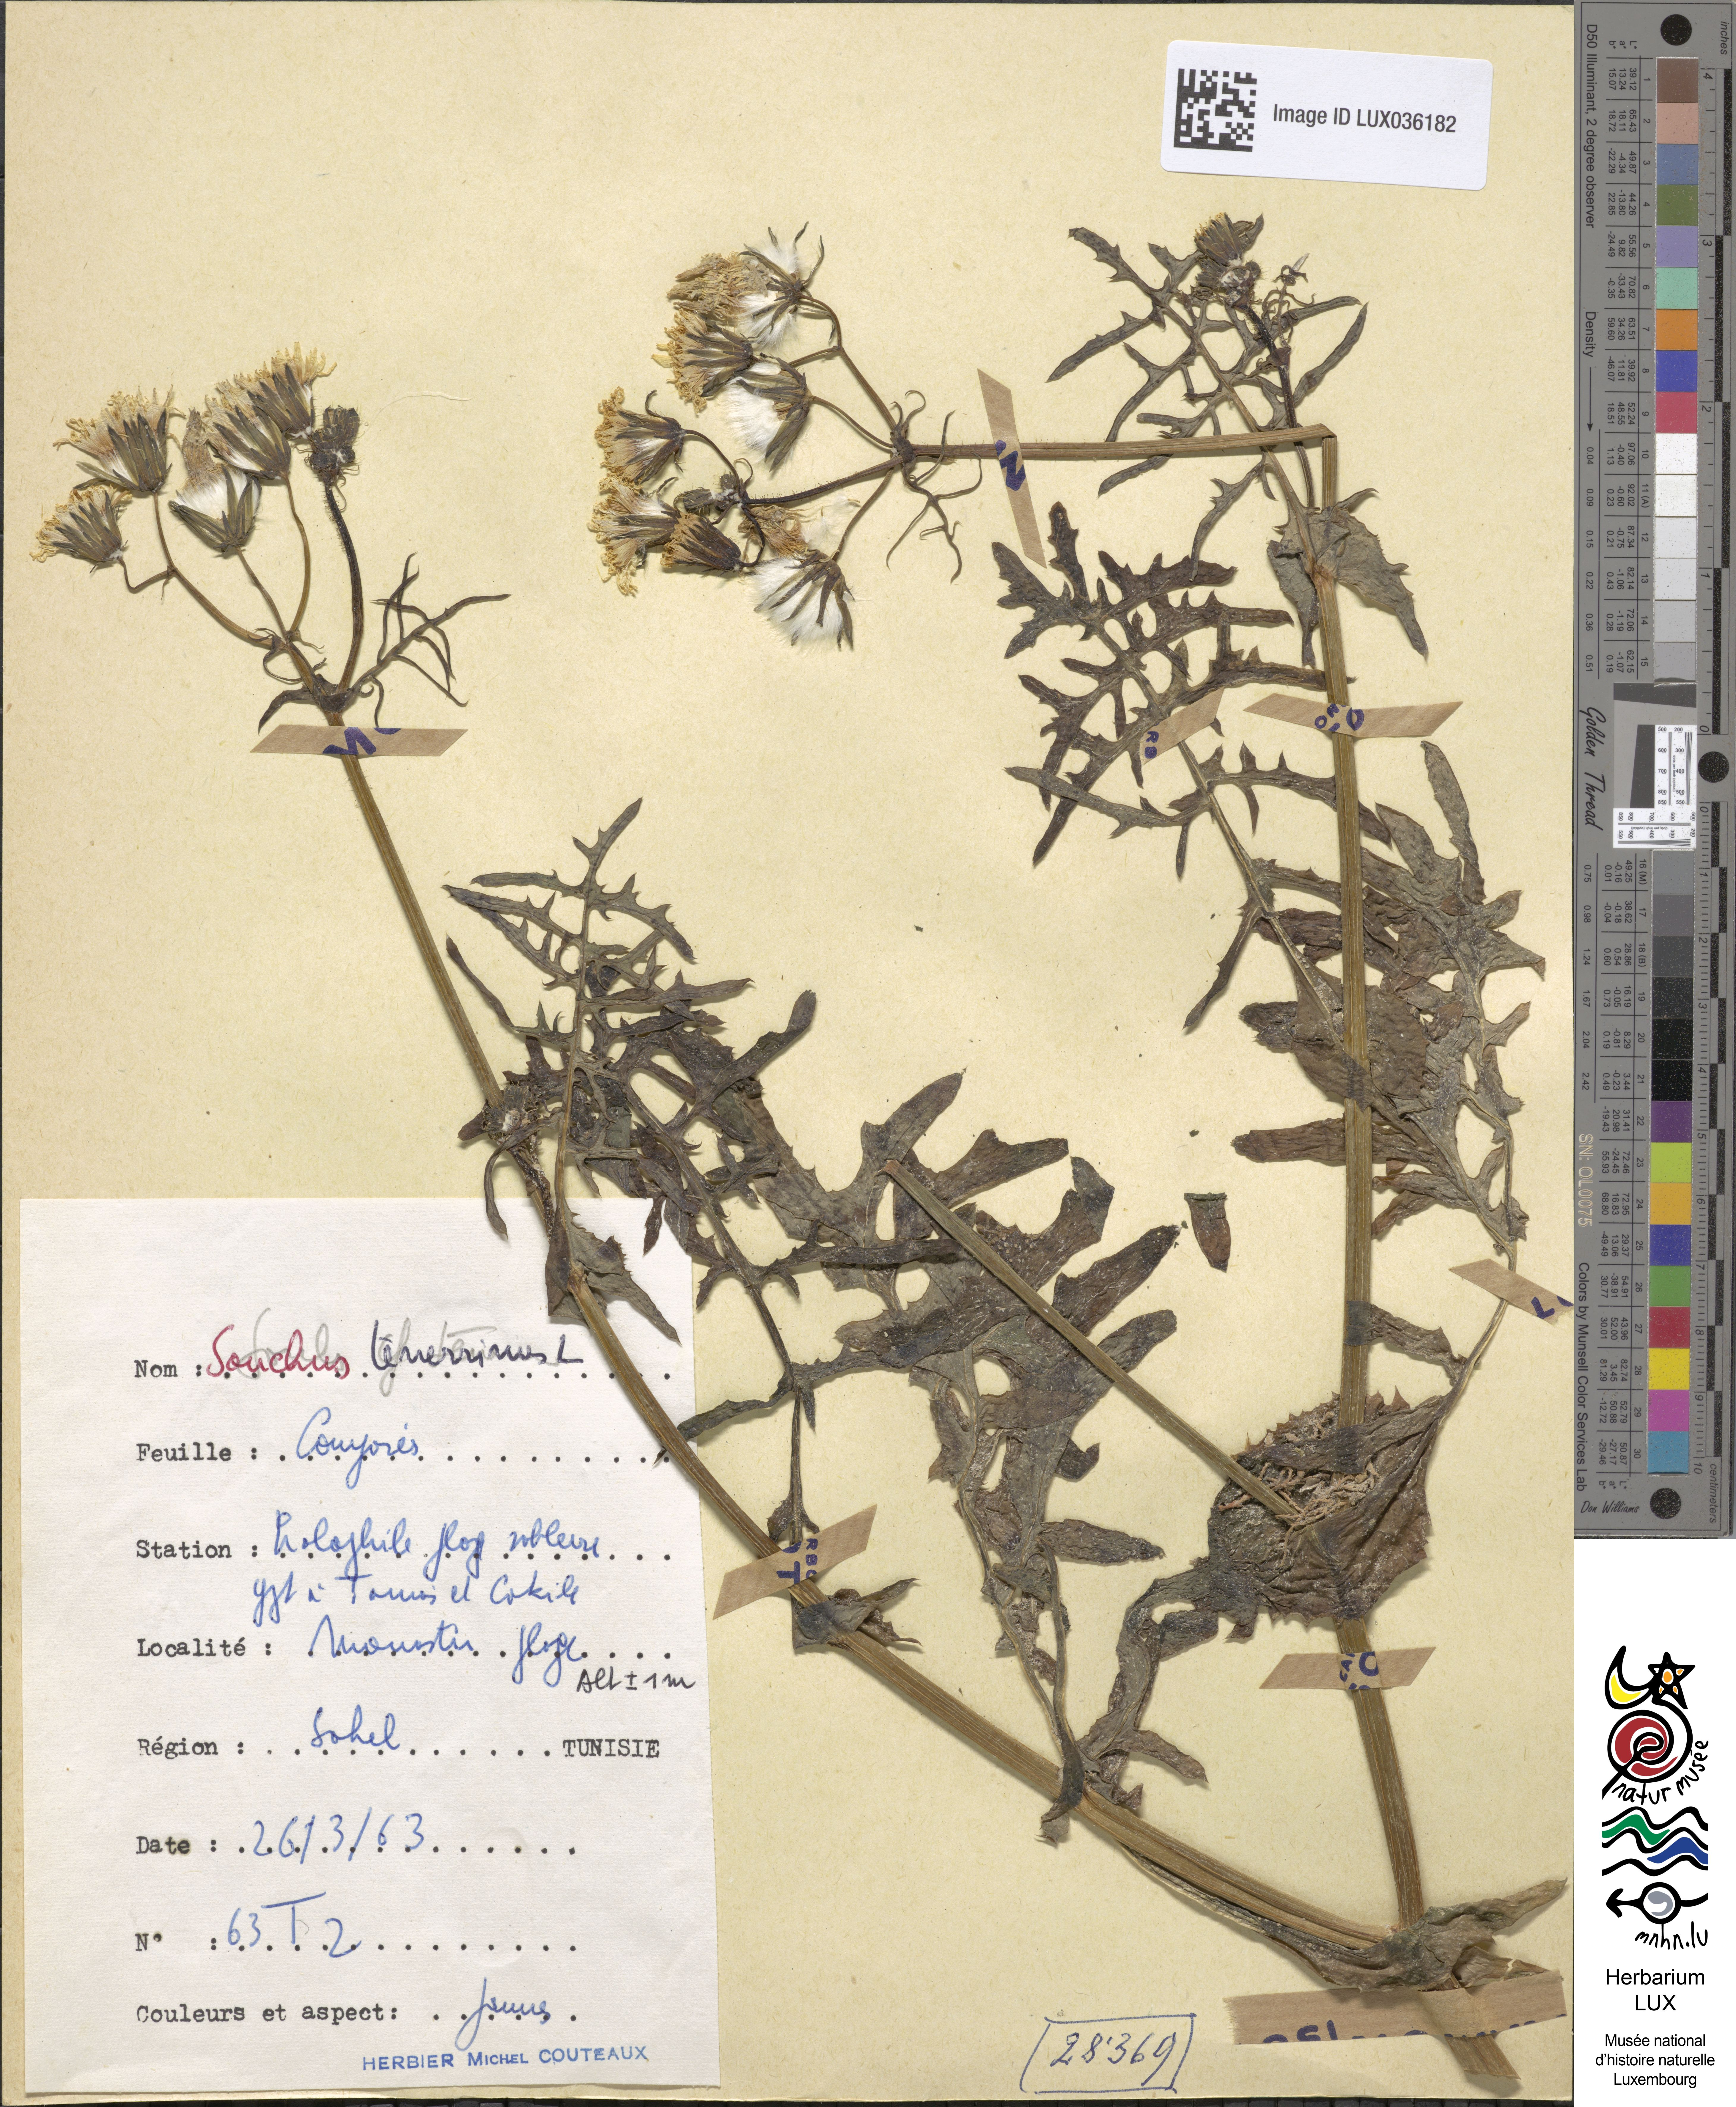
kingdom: Plantae
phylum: Tracheophyta
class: Magnoliopsida
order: Asterales
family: Asteraceae
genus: Sonchus
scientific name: Sonchus tenerrimus
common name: Clammy sowthistle
